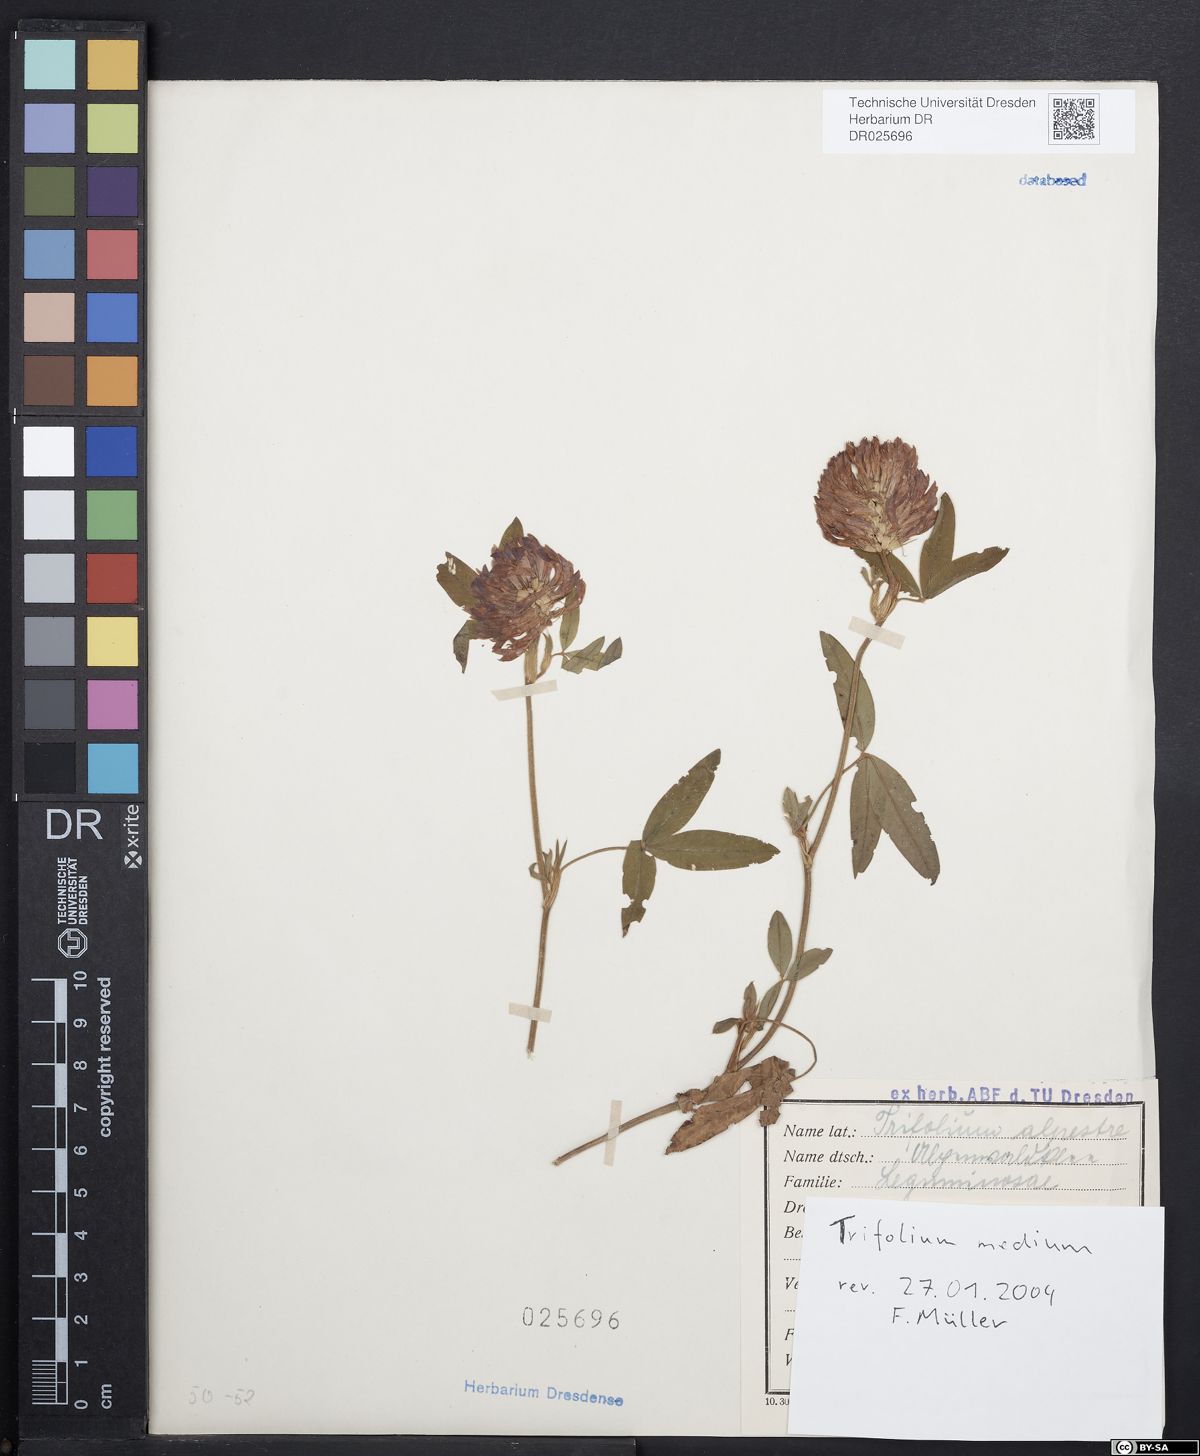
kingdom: Plantae
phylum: Tracheophyta
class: Magnoliopsida
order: Fabales
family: Fabaceae
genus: Trifolium
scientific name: Trifolium medium
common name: Zigzag clover
